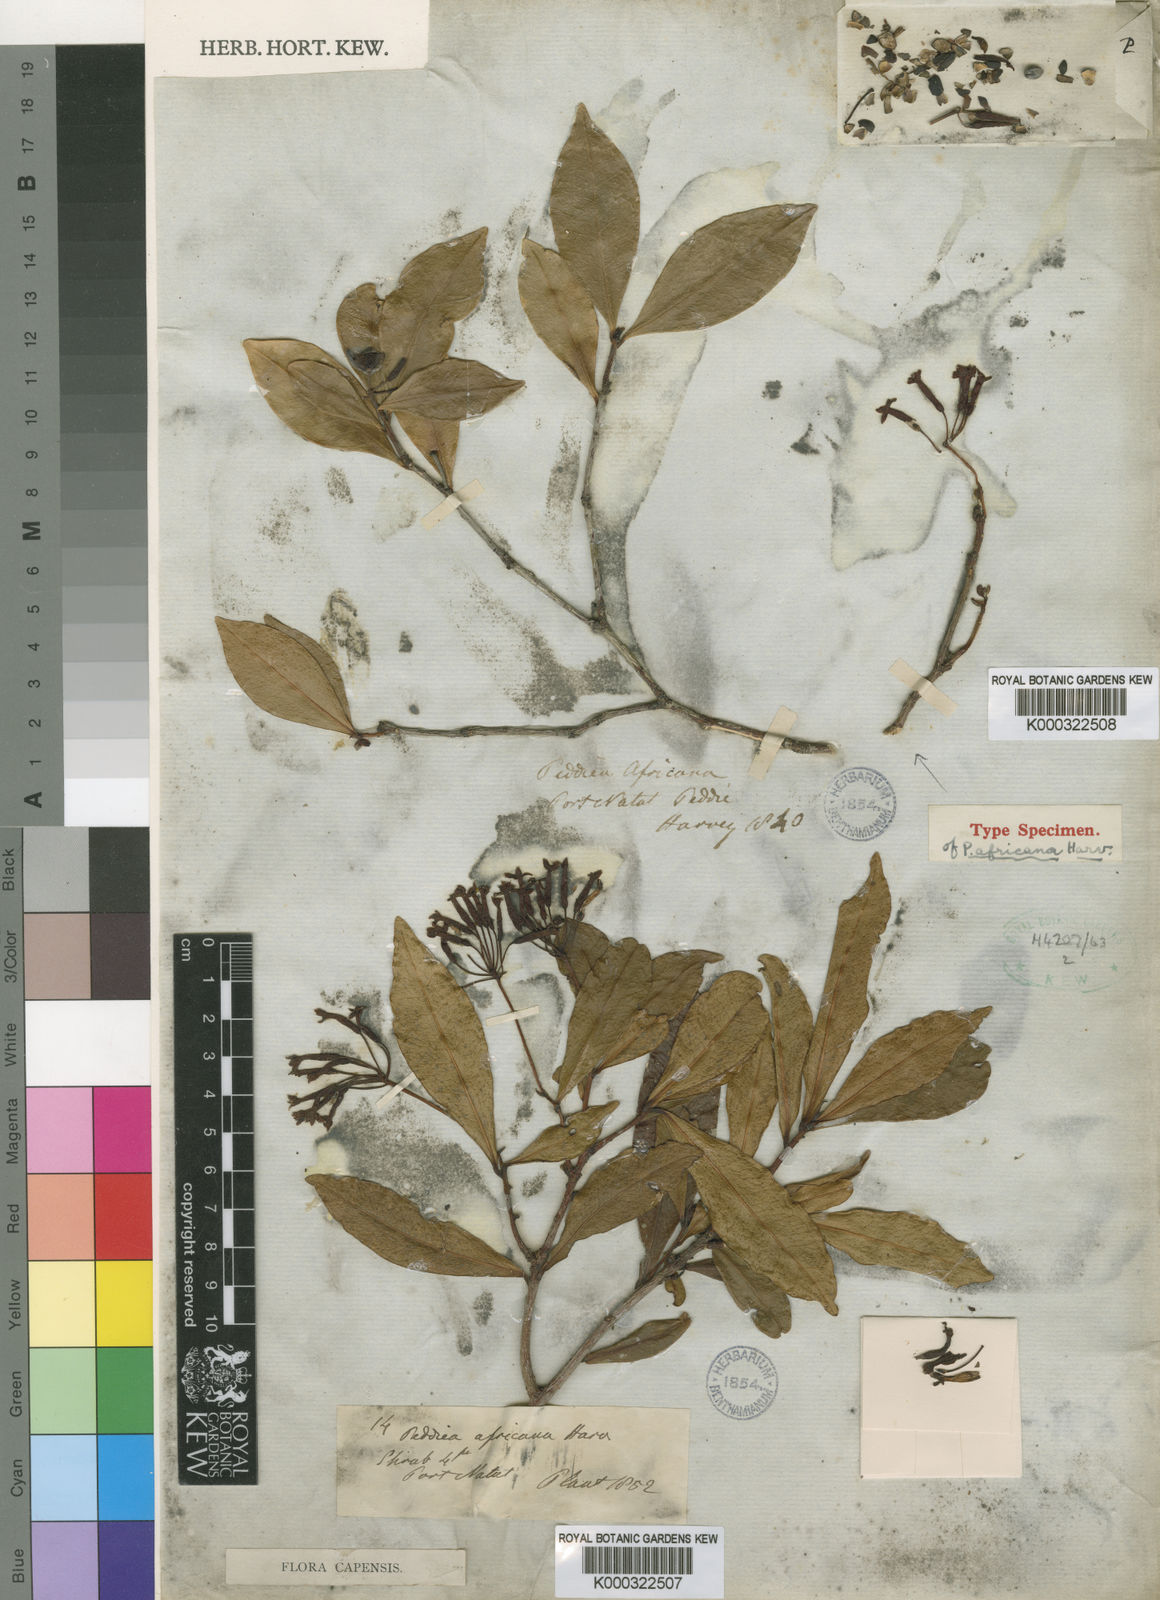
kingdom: Plantae
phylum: Tracheophyta
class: Magnoliopsida
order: Malvales
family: Thymelaeaceae
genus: Peddiea
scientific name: Peddiea africana
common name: Poison olive
